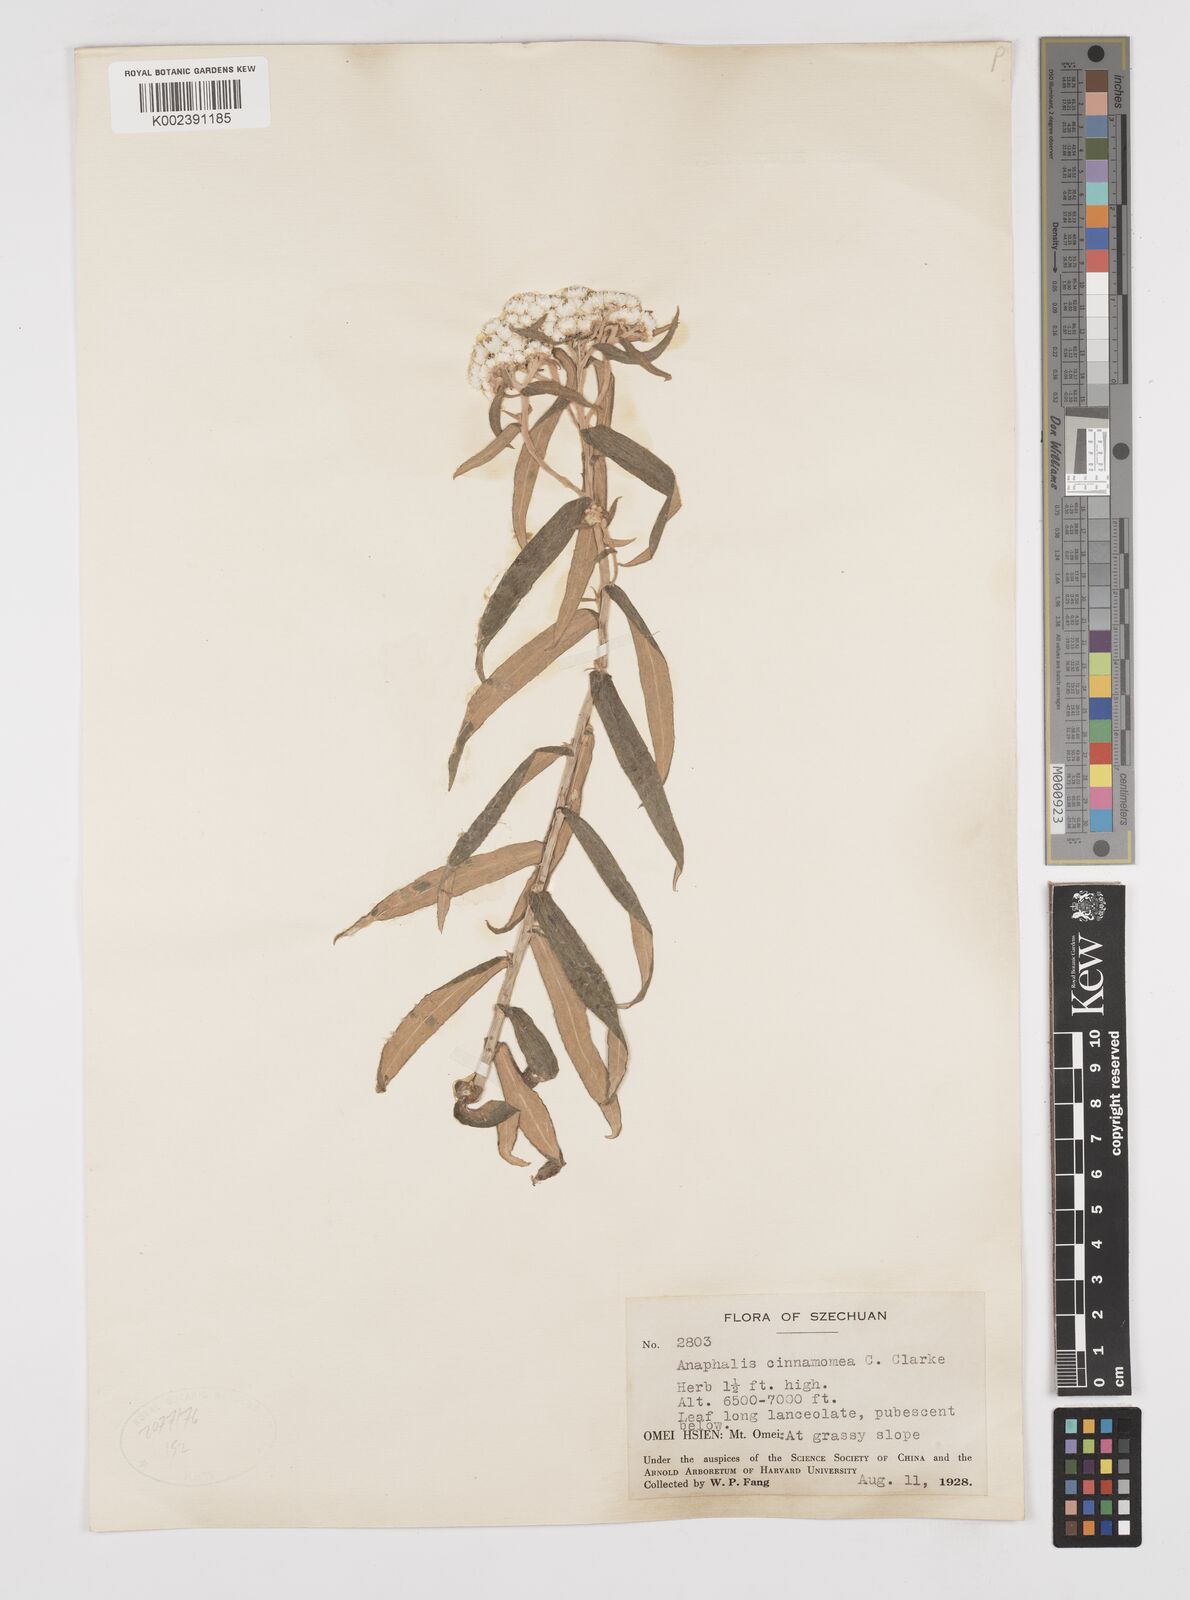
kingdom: Plantae
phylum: Tracheophyta
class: Magnoliopsida
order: Asterales
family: Asteraceae
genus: Anaphalis
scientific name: Anaphalis margaritacea
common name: Pearly everlasting
